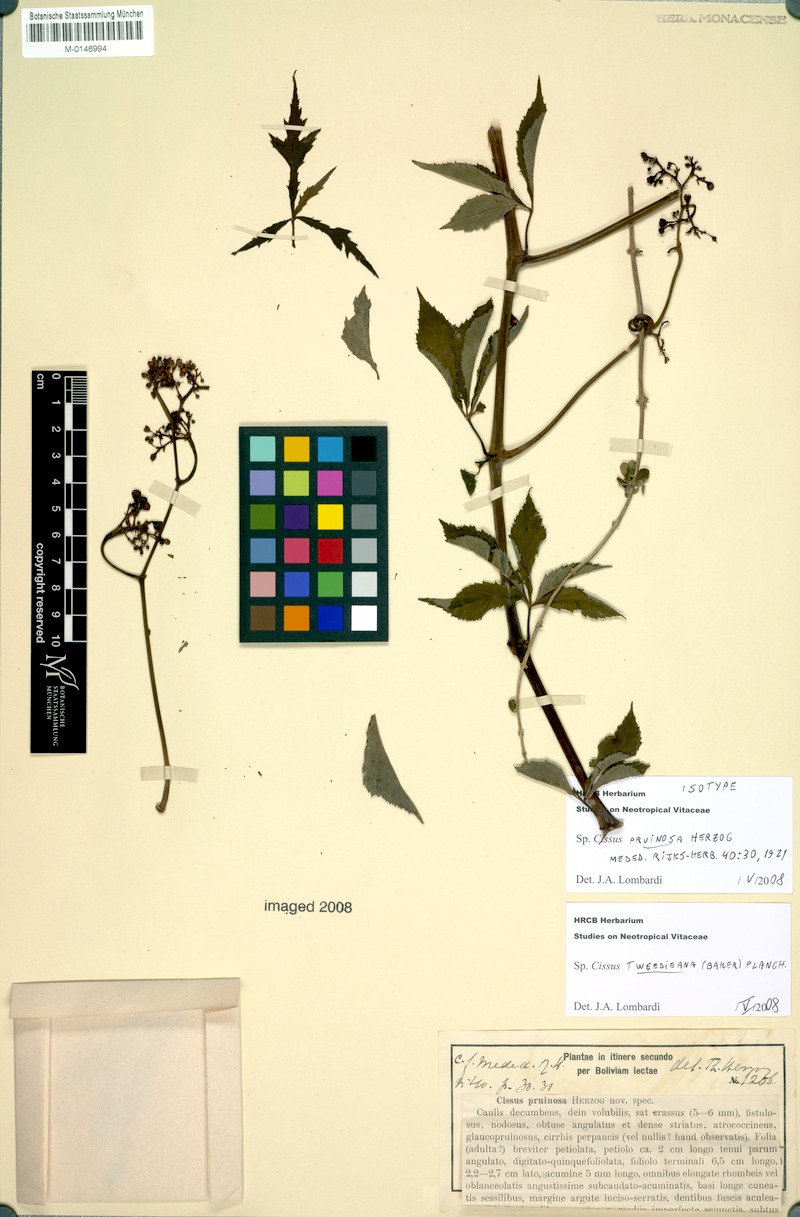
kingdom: Plantae
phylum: Tracheophyta
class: Magnoliopsida
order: Vitales
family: Vitaceae
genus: Clematicissus
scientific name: Clematicissus tweedieana
